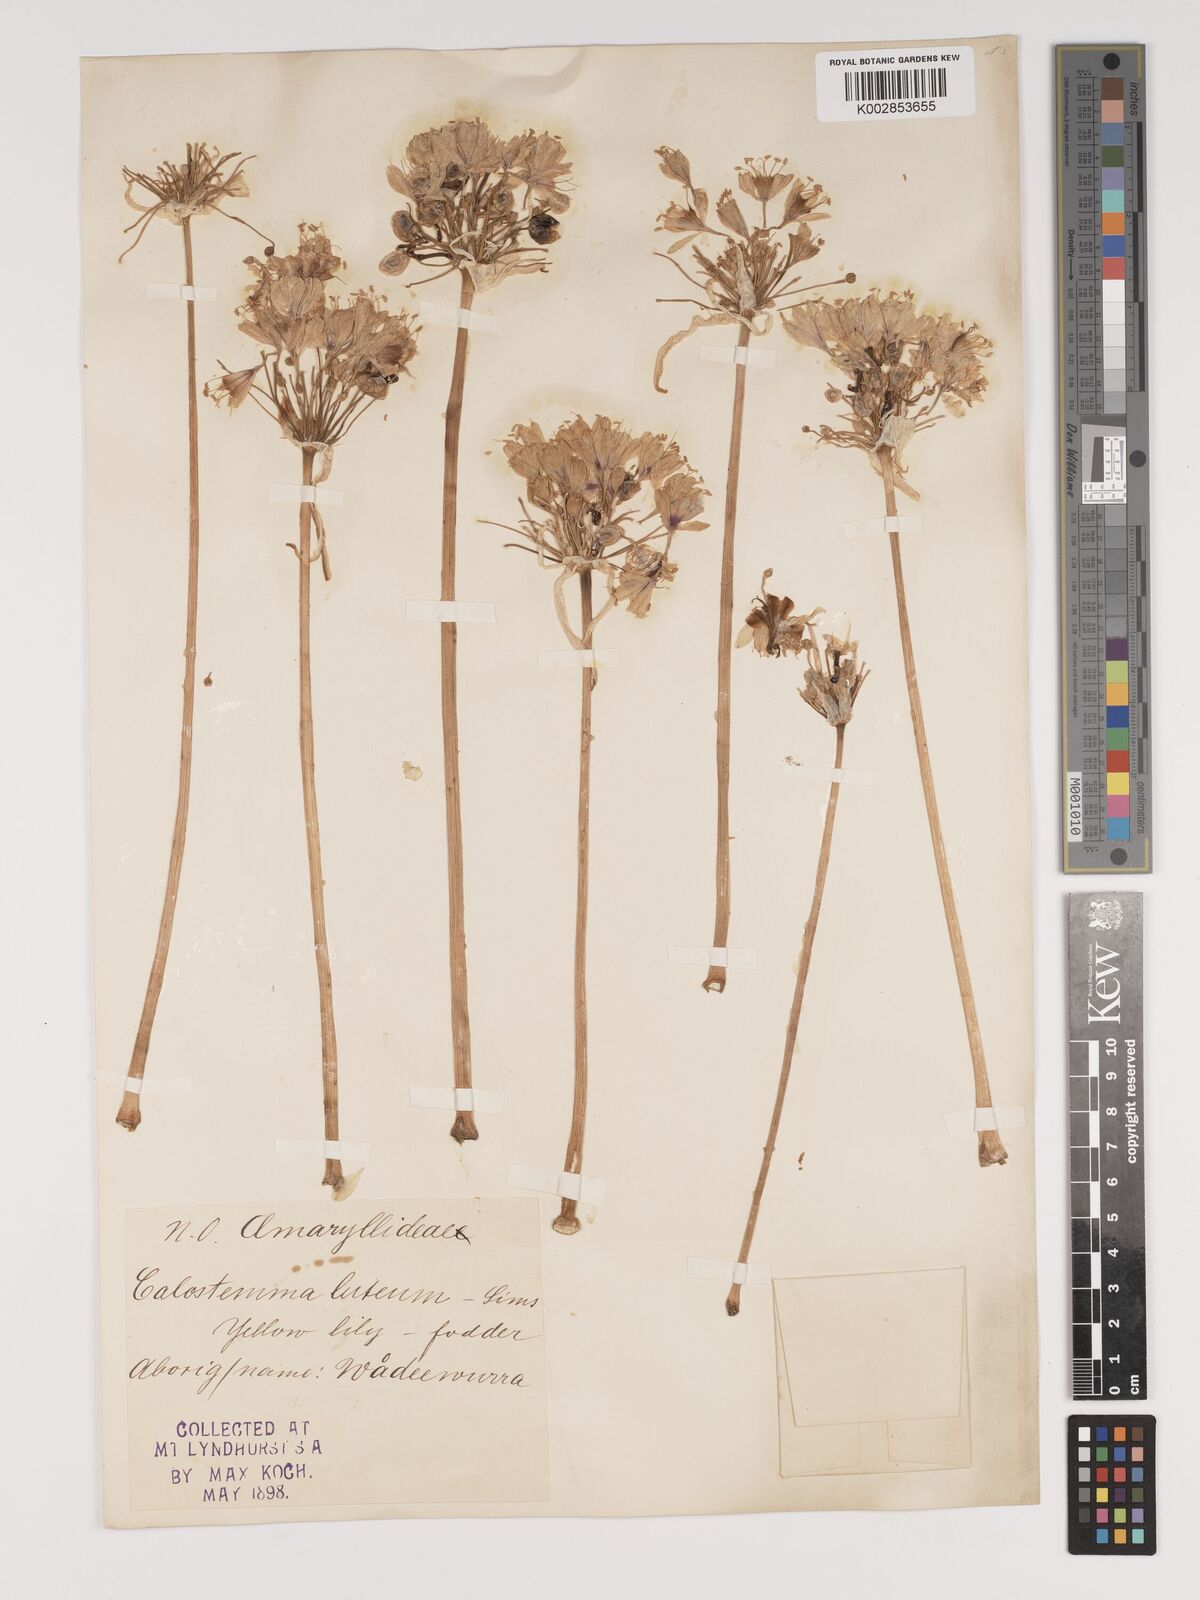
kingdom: Plantae
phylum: Tracheophyta
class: Liliopsida
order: Asparagales
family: Amaryllidaceae
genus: Calostemma
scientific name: Calostemma luteum
